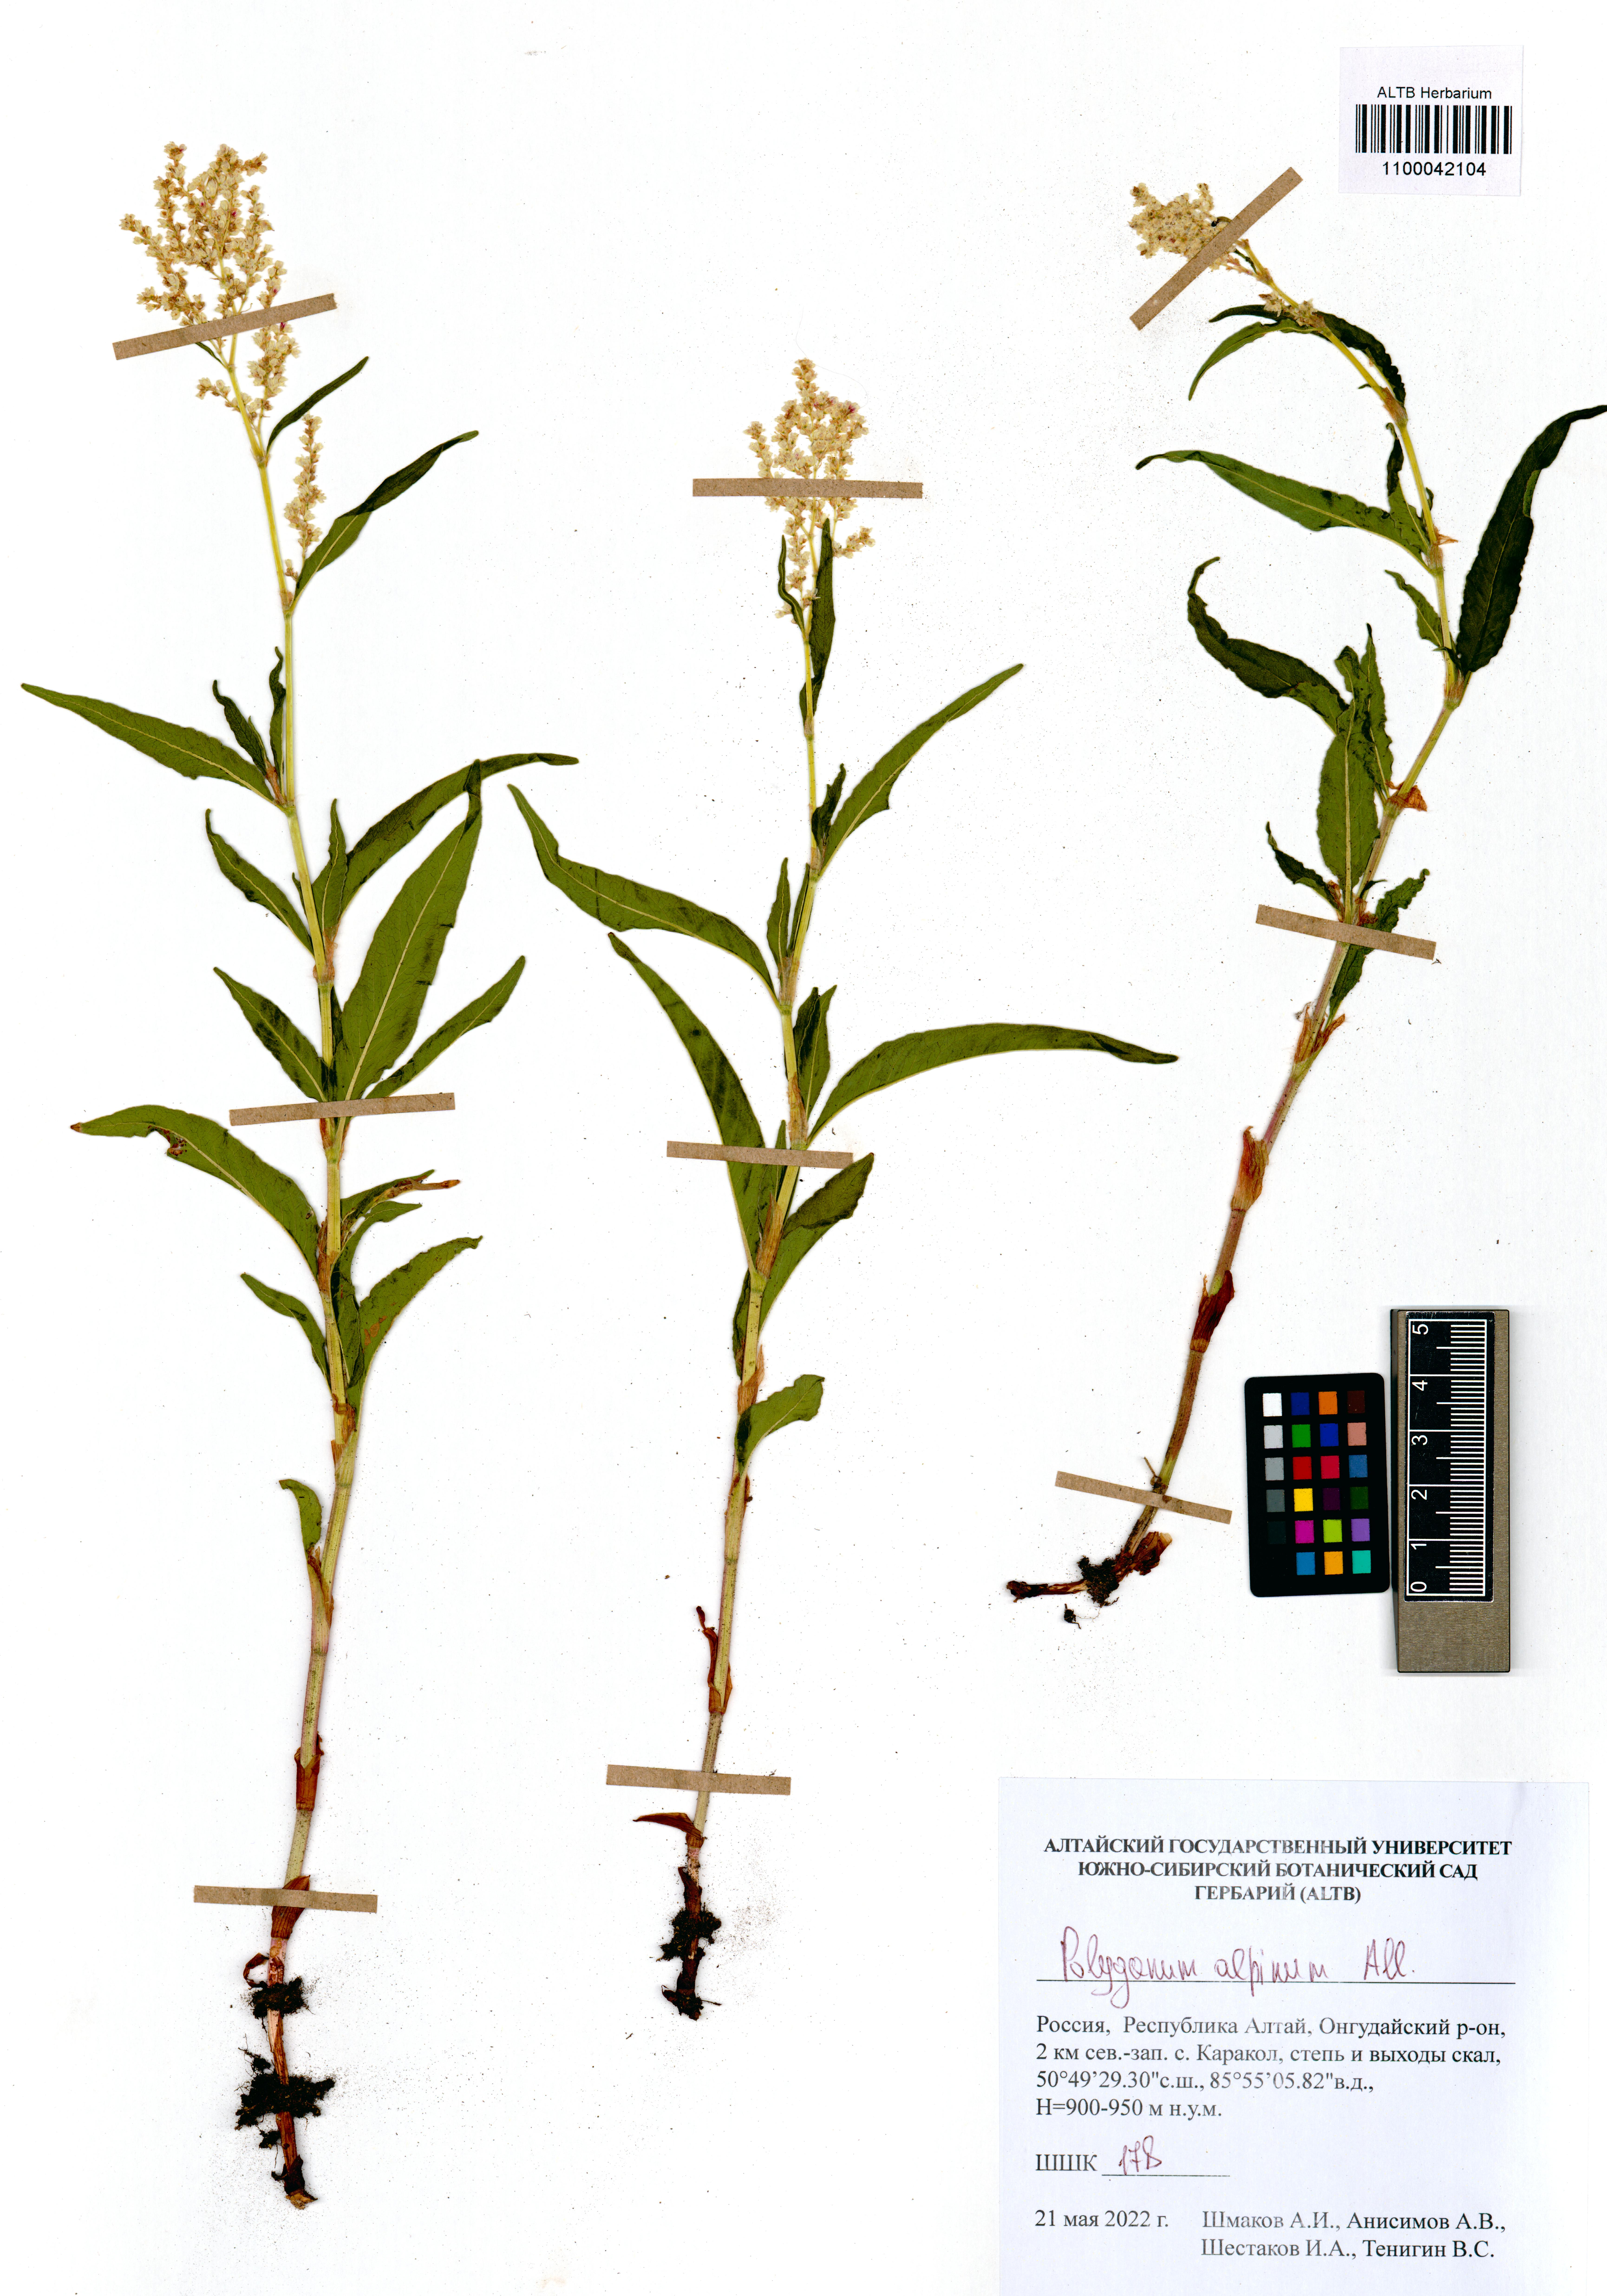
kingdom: Plantae
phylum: Tracheophyta
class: Magnoliopsida
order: Caryophyllales
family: Polygonaceae
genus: Koenigia
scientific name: Koenigia alpina
